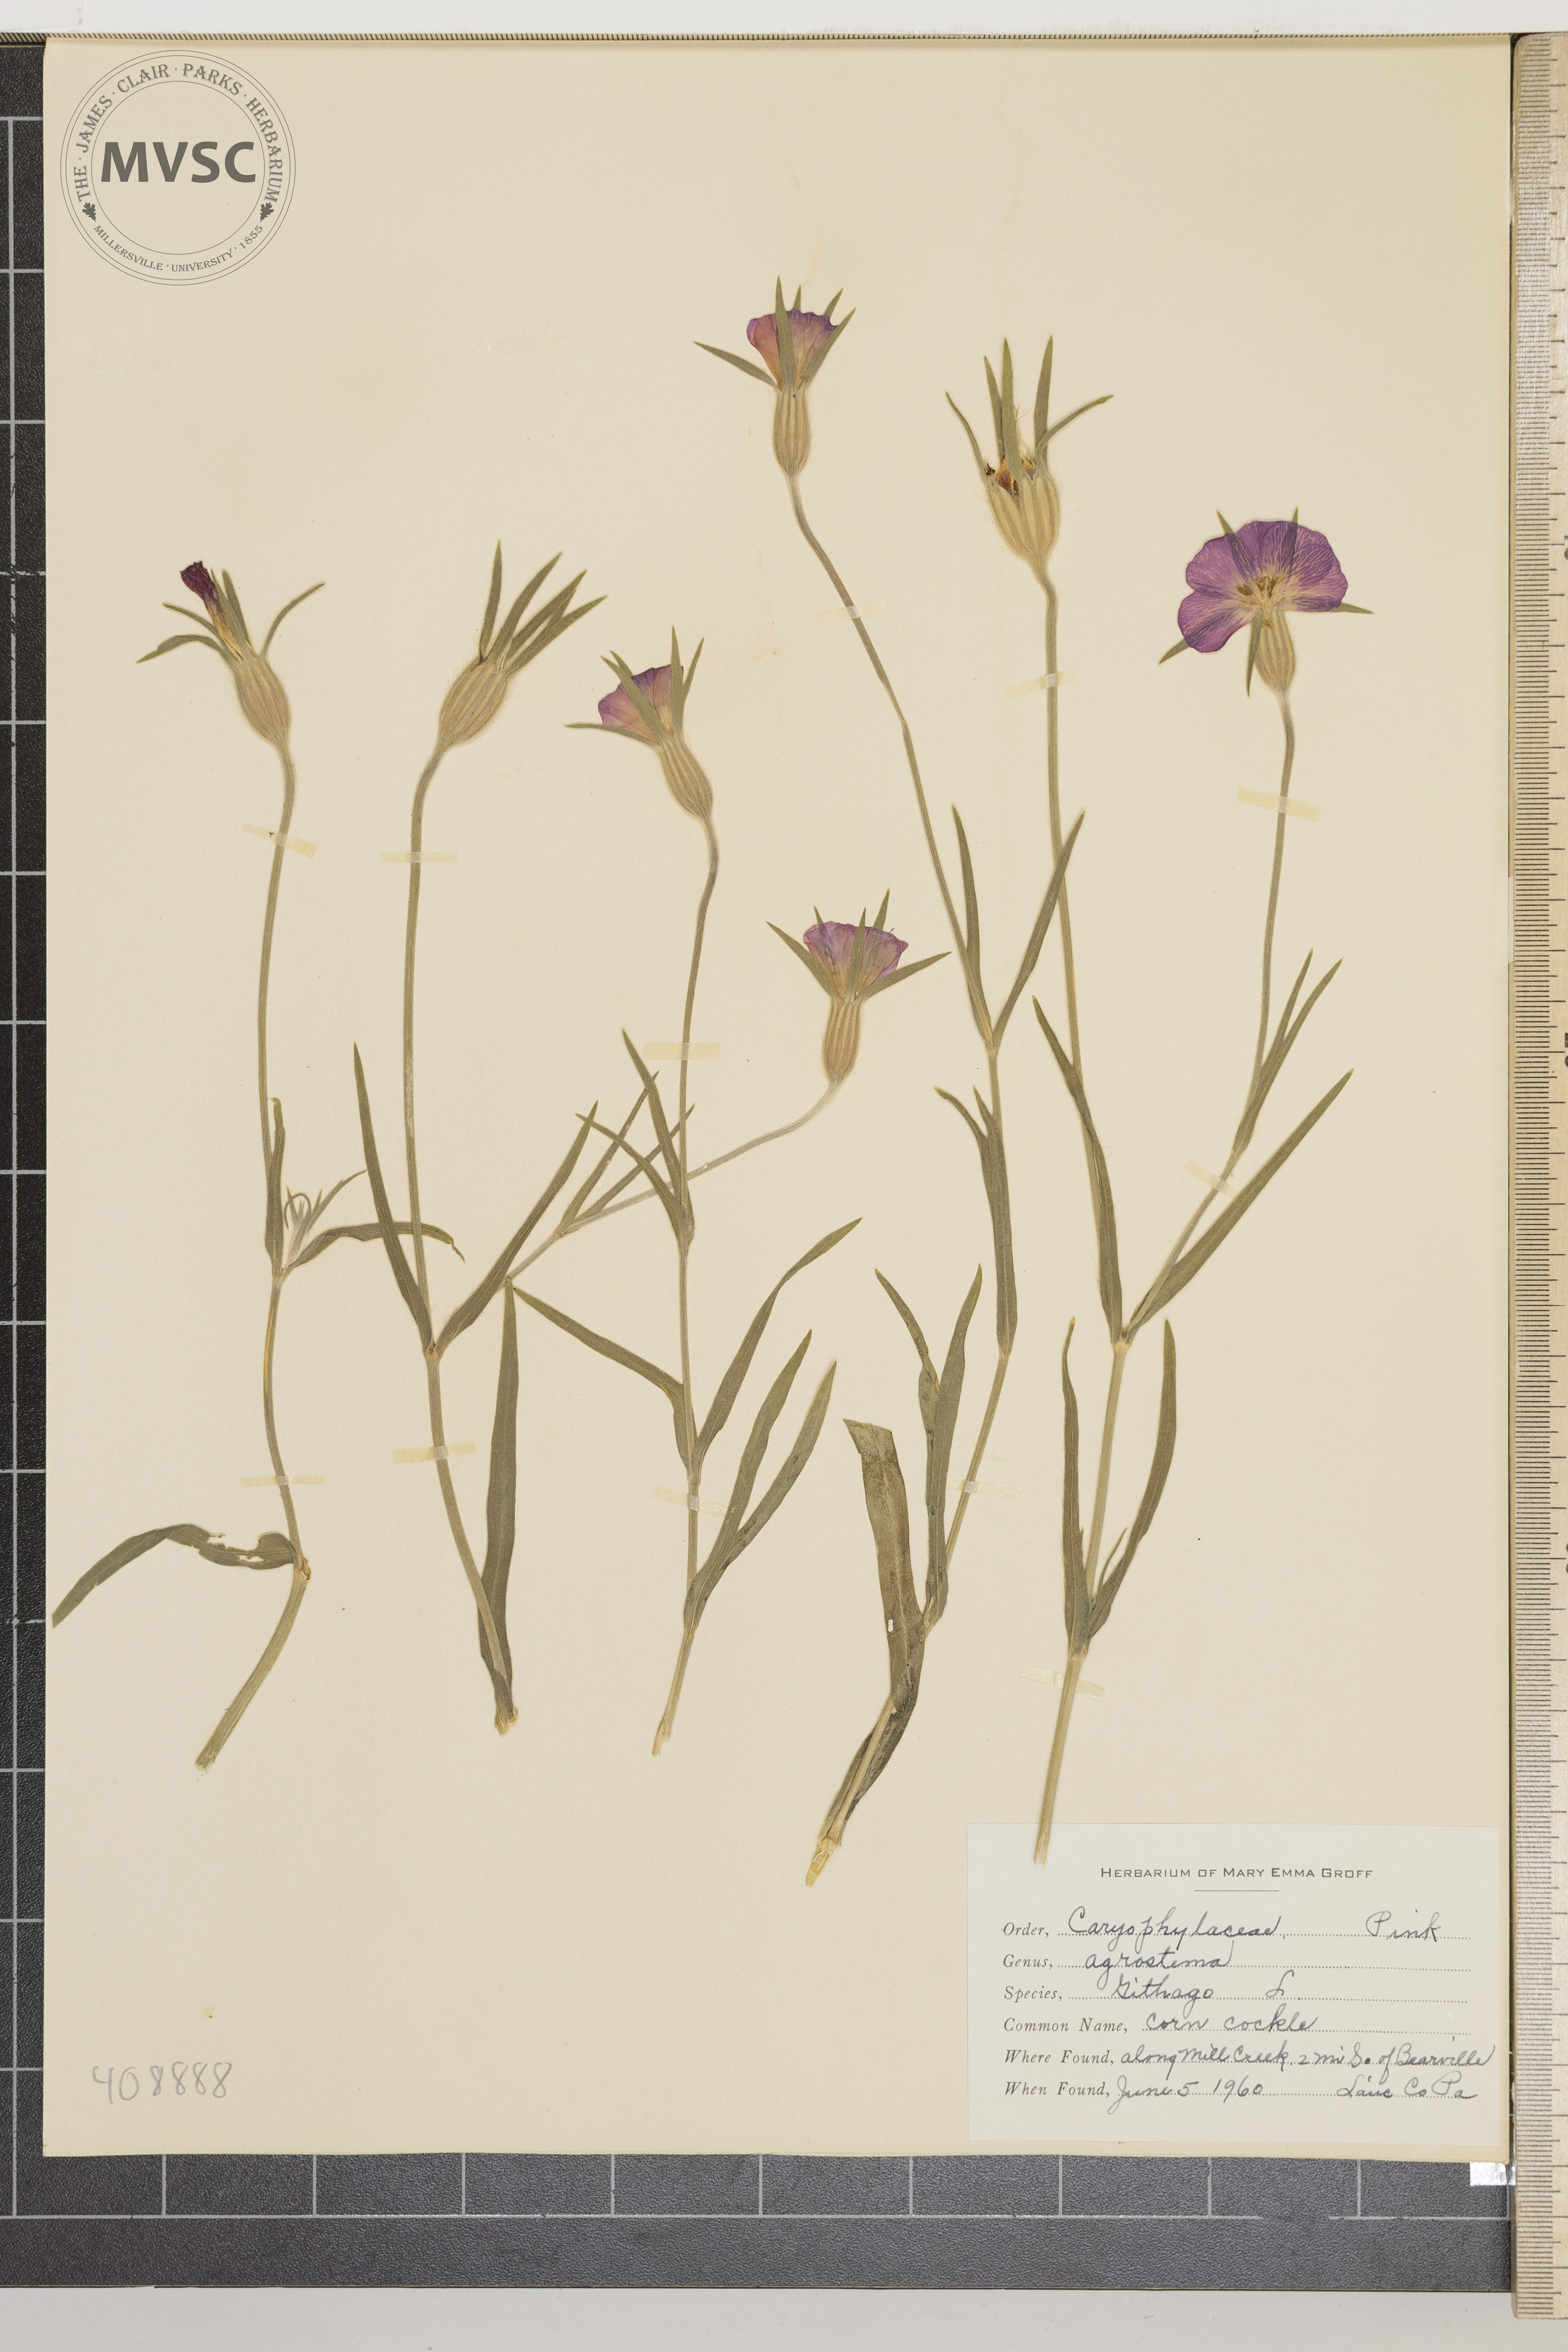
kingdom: Plantae
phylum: Tracheophyta
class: Magnoliopsida
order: Caryophyllales
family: Caryophyllaceae
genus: Agrostemma
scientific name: Agrostemma githago
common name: Corn cockle
